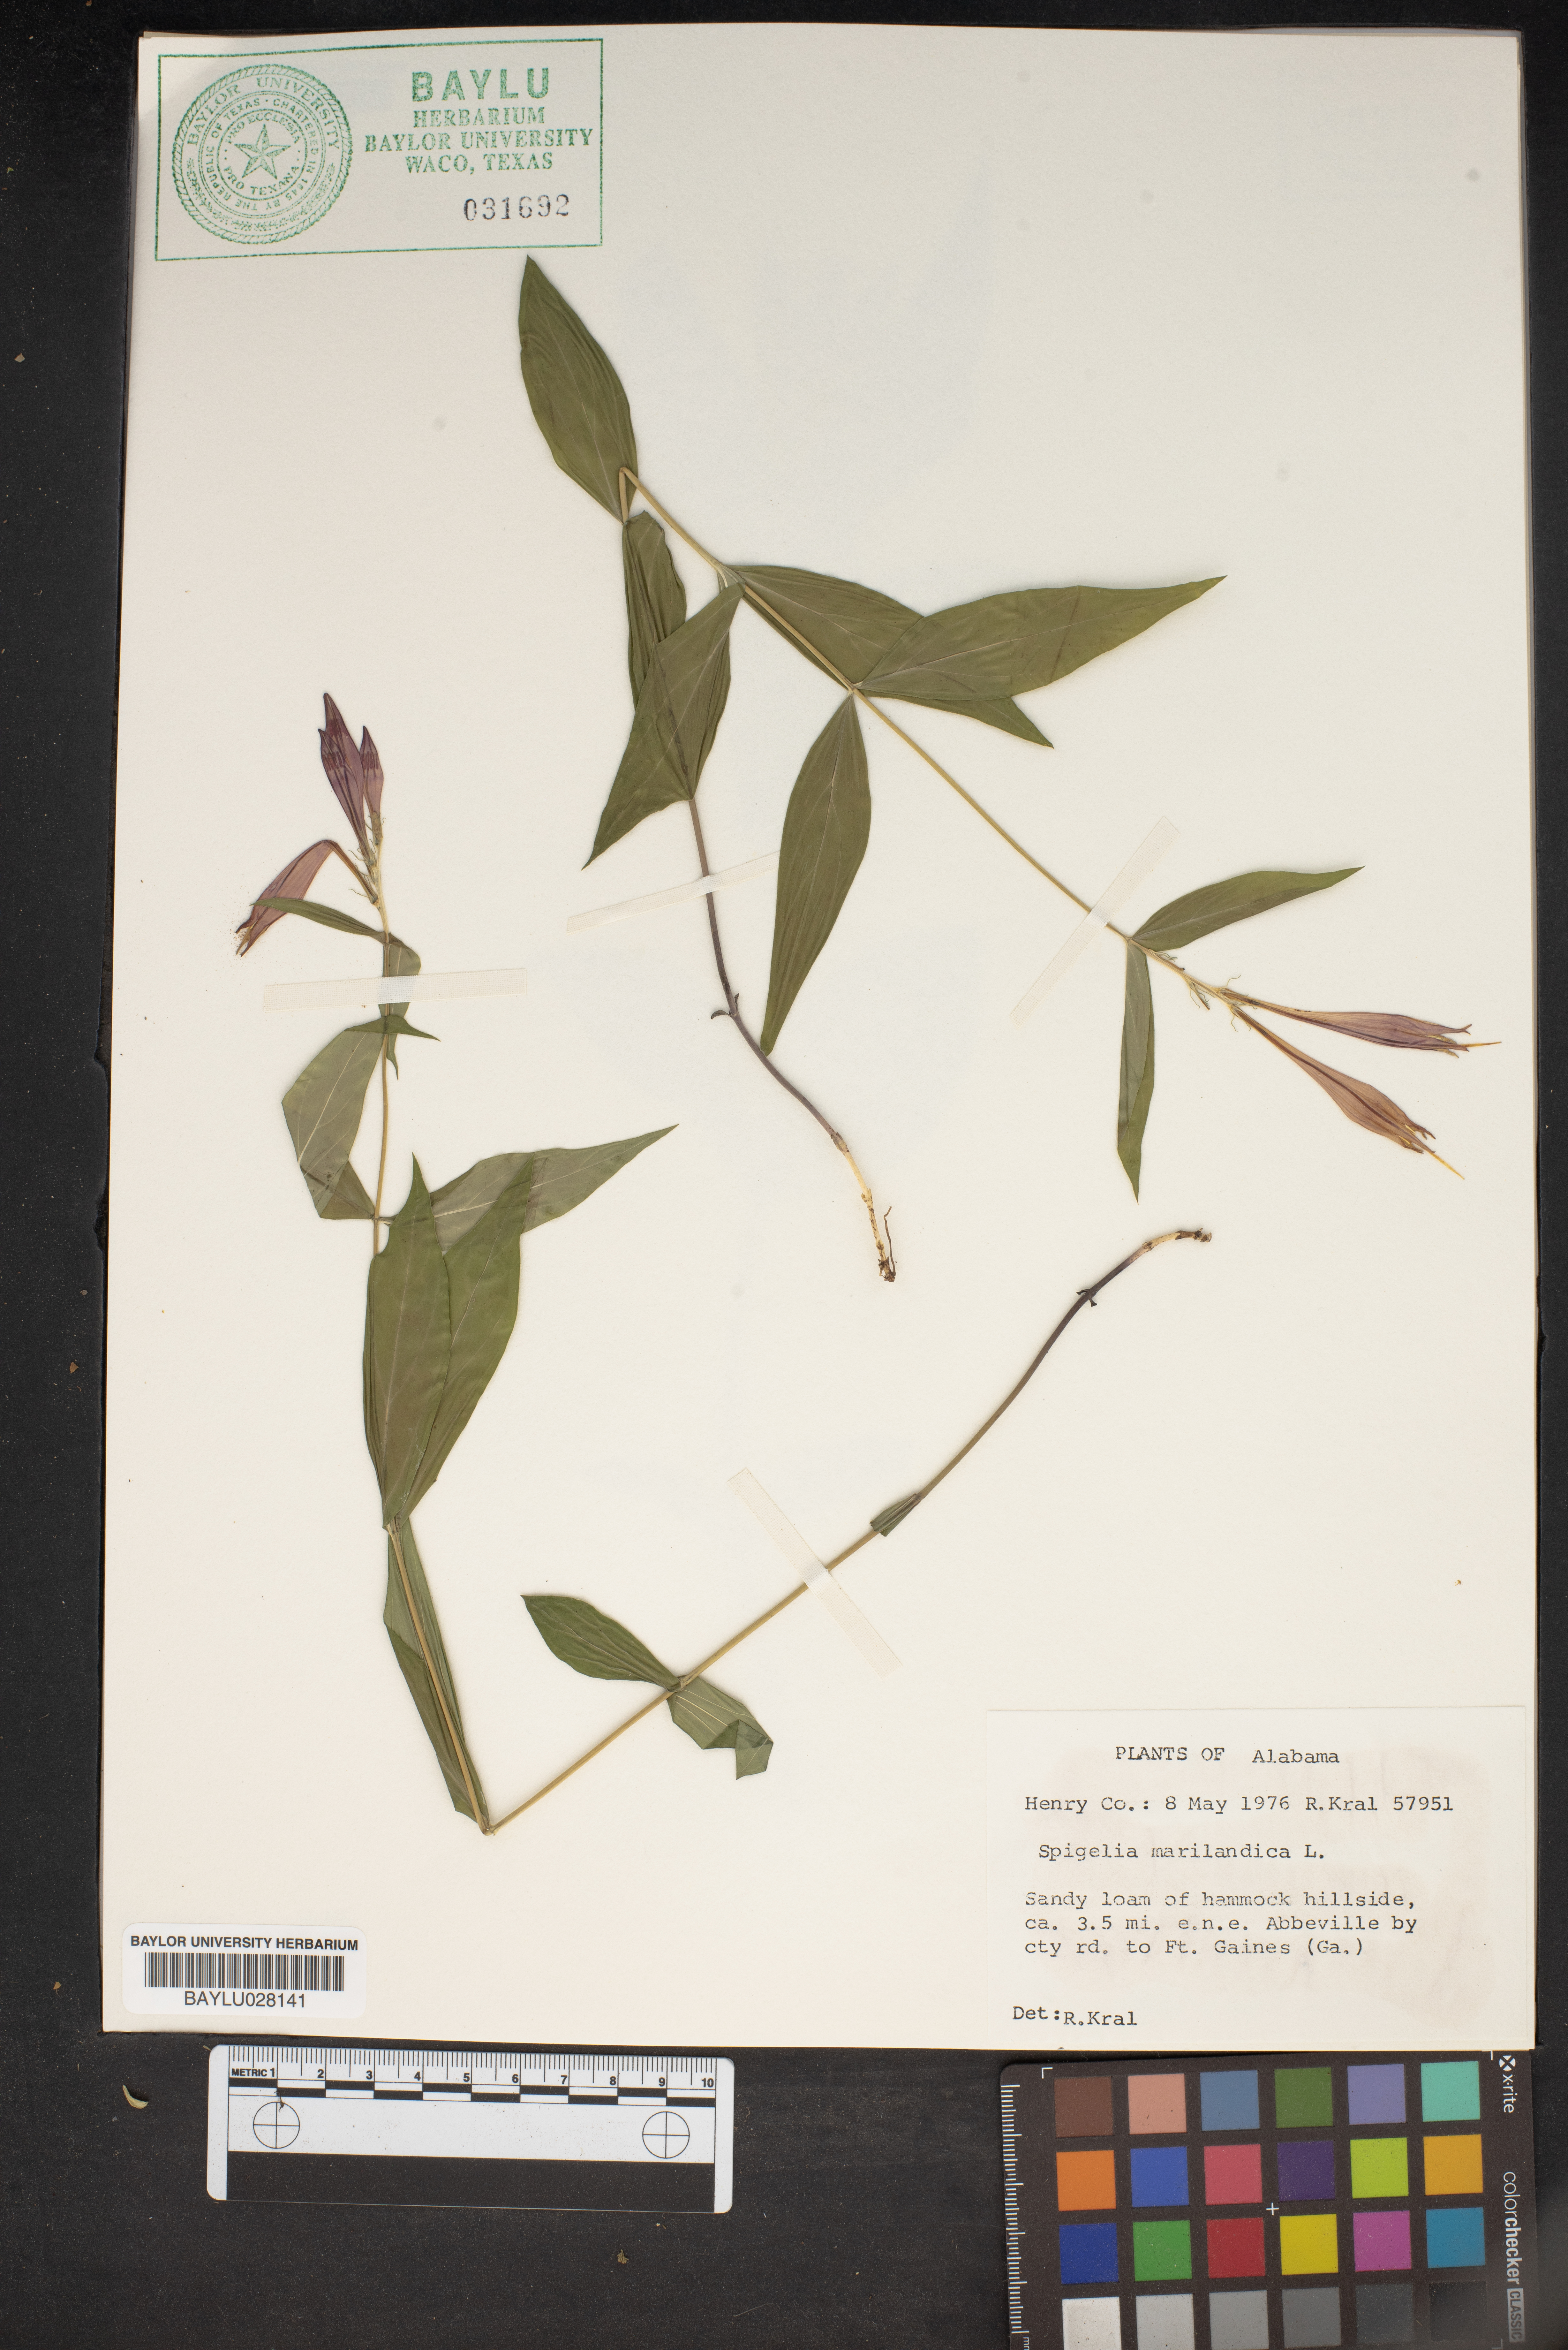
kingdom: Plantae
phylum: Tracheophyta
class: Magnoliopsida
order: Gentianales
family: Loganiaceae
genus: Spigelia
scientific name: Spigelia marilandica
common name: Indian-pink
